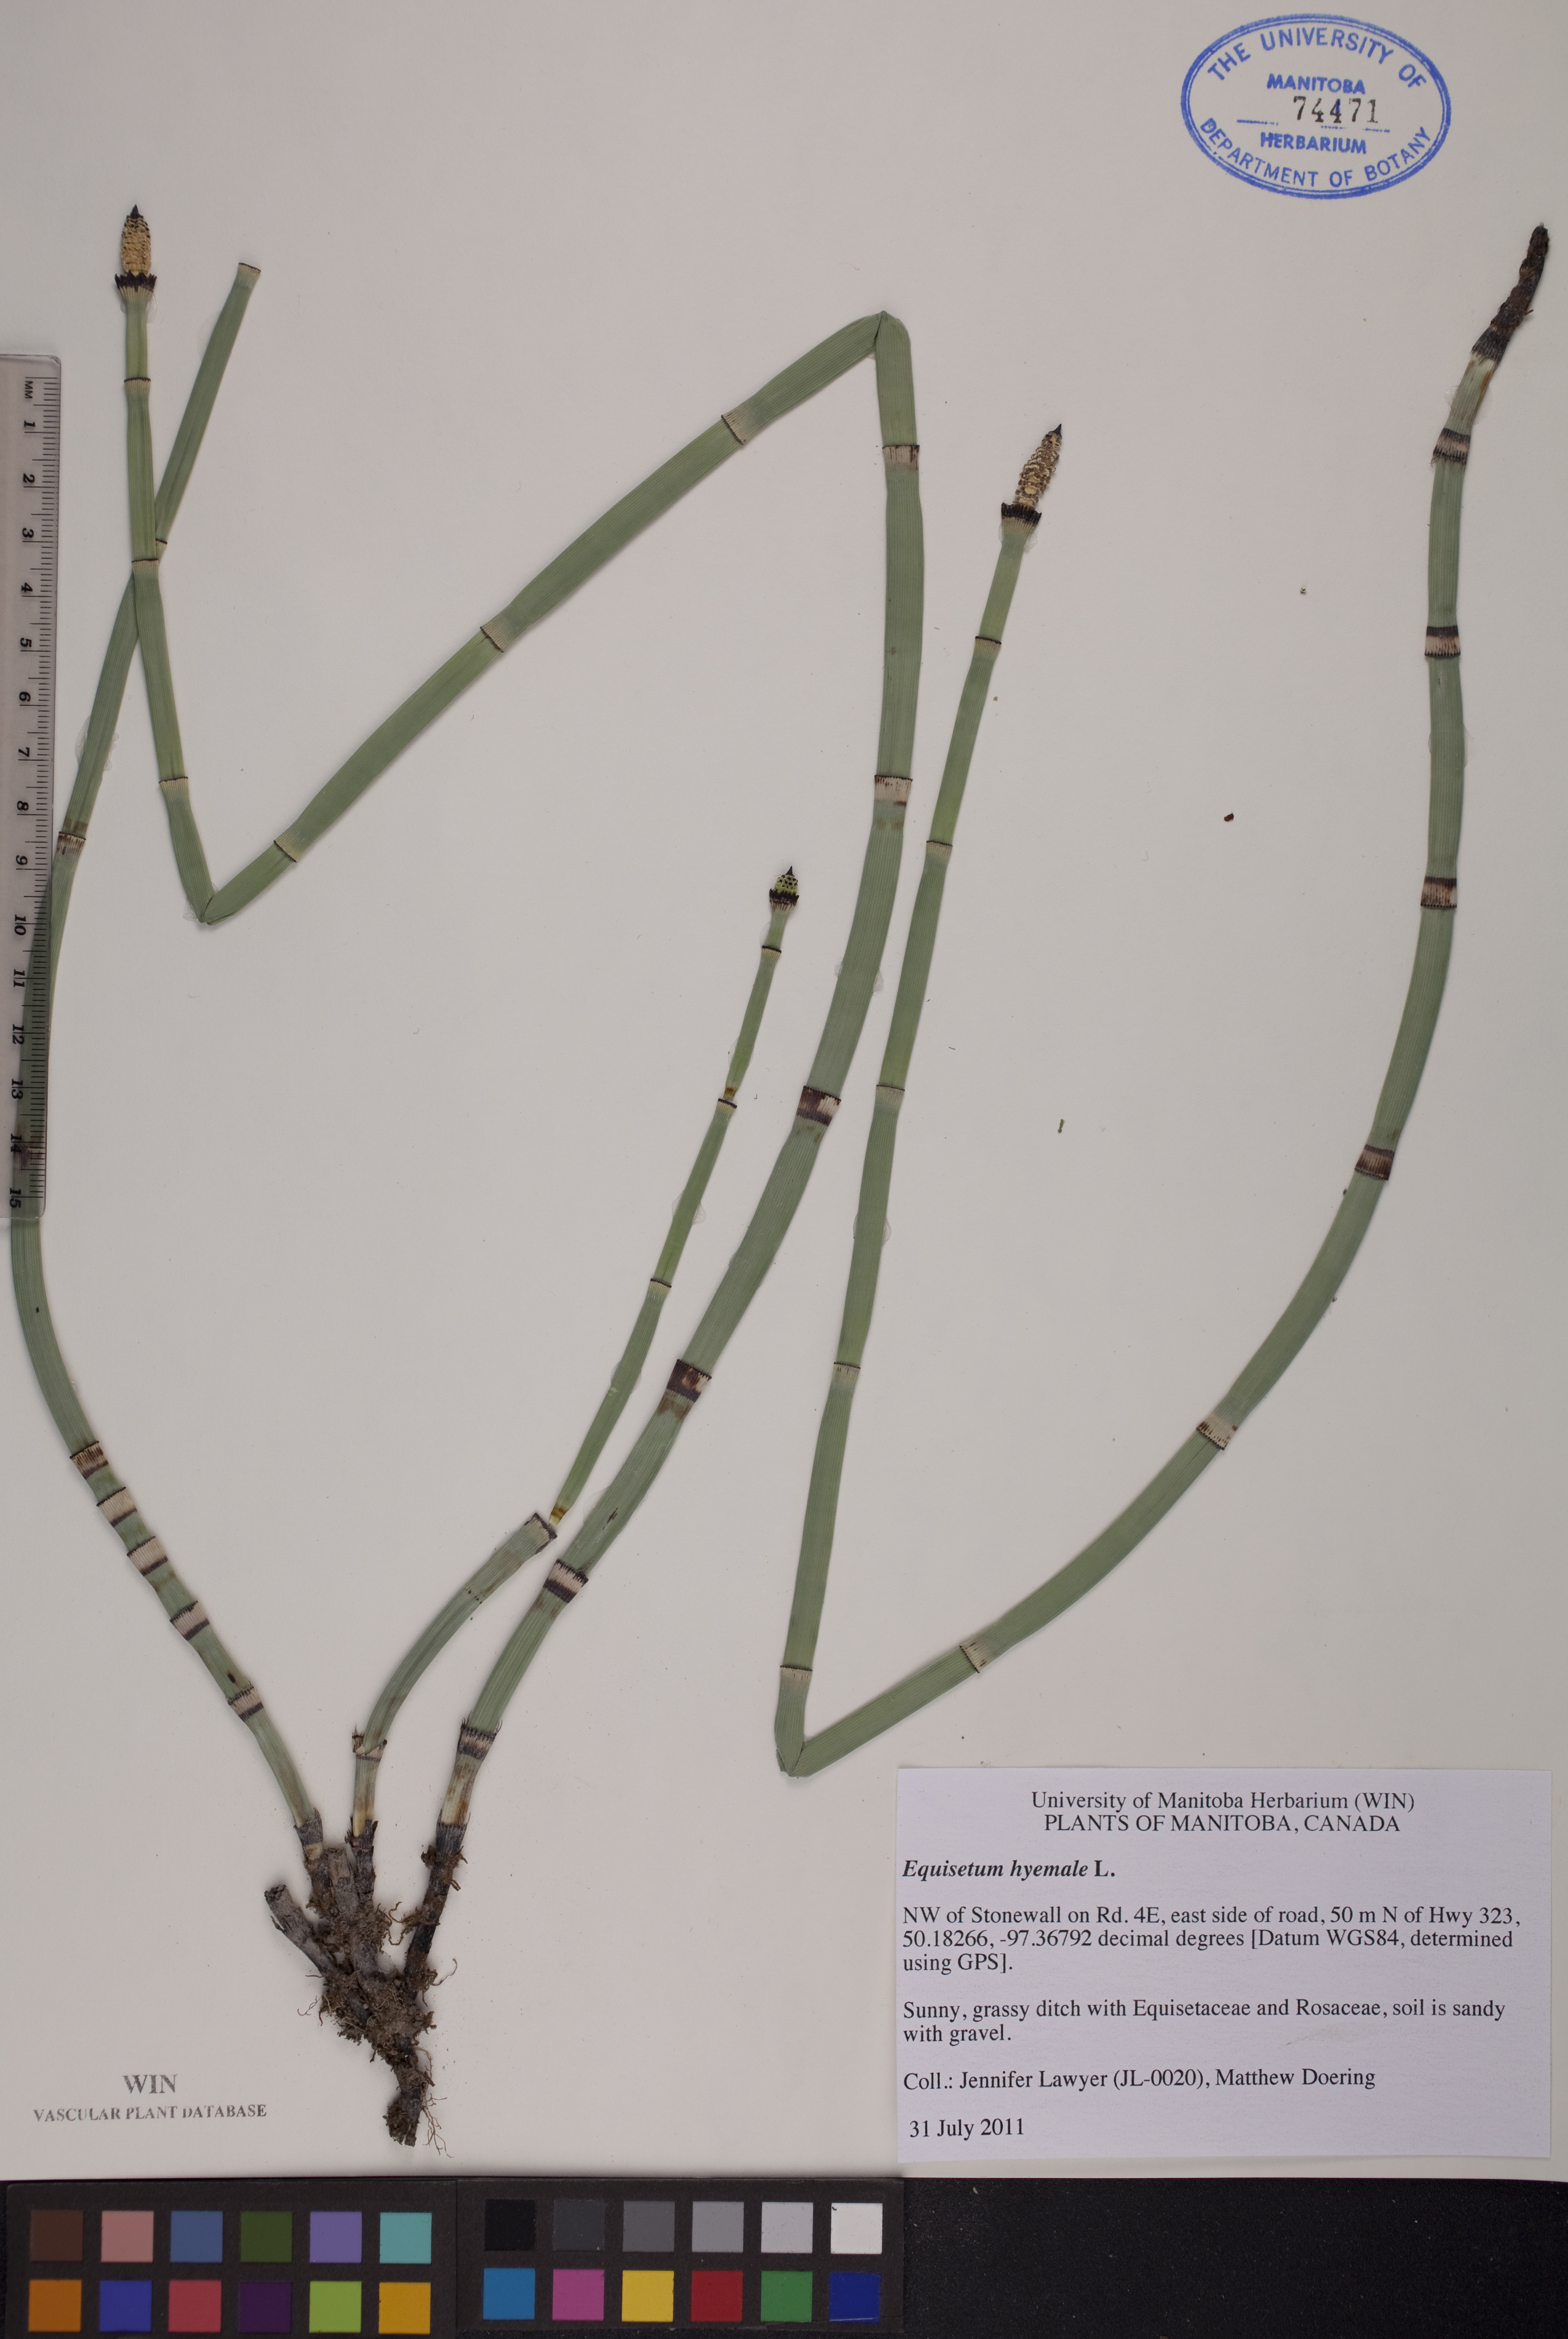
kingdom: Plantae
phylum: Tracheophyta
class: Polypodiopsida
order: Equisetales
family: Equisetaceae
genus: Equisetum
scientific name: Equisetum hyemale
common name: Rough horsetail
